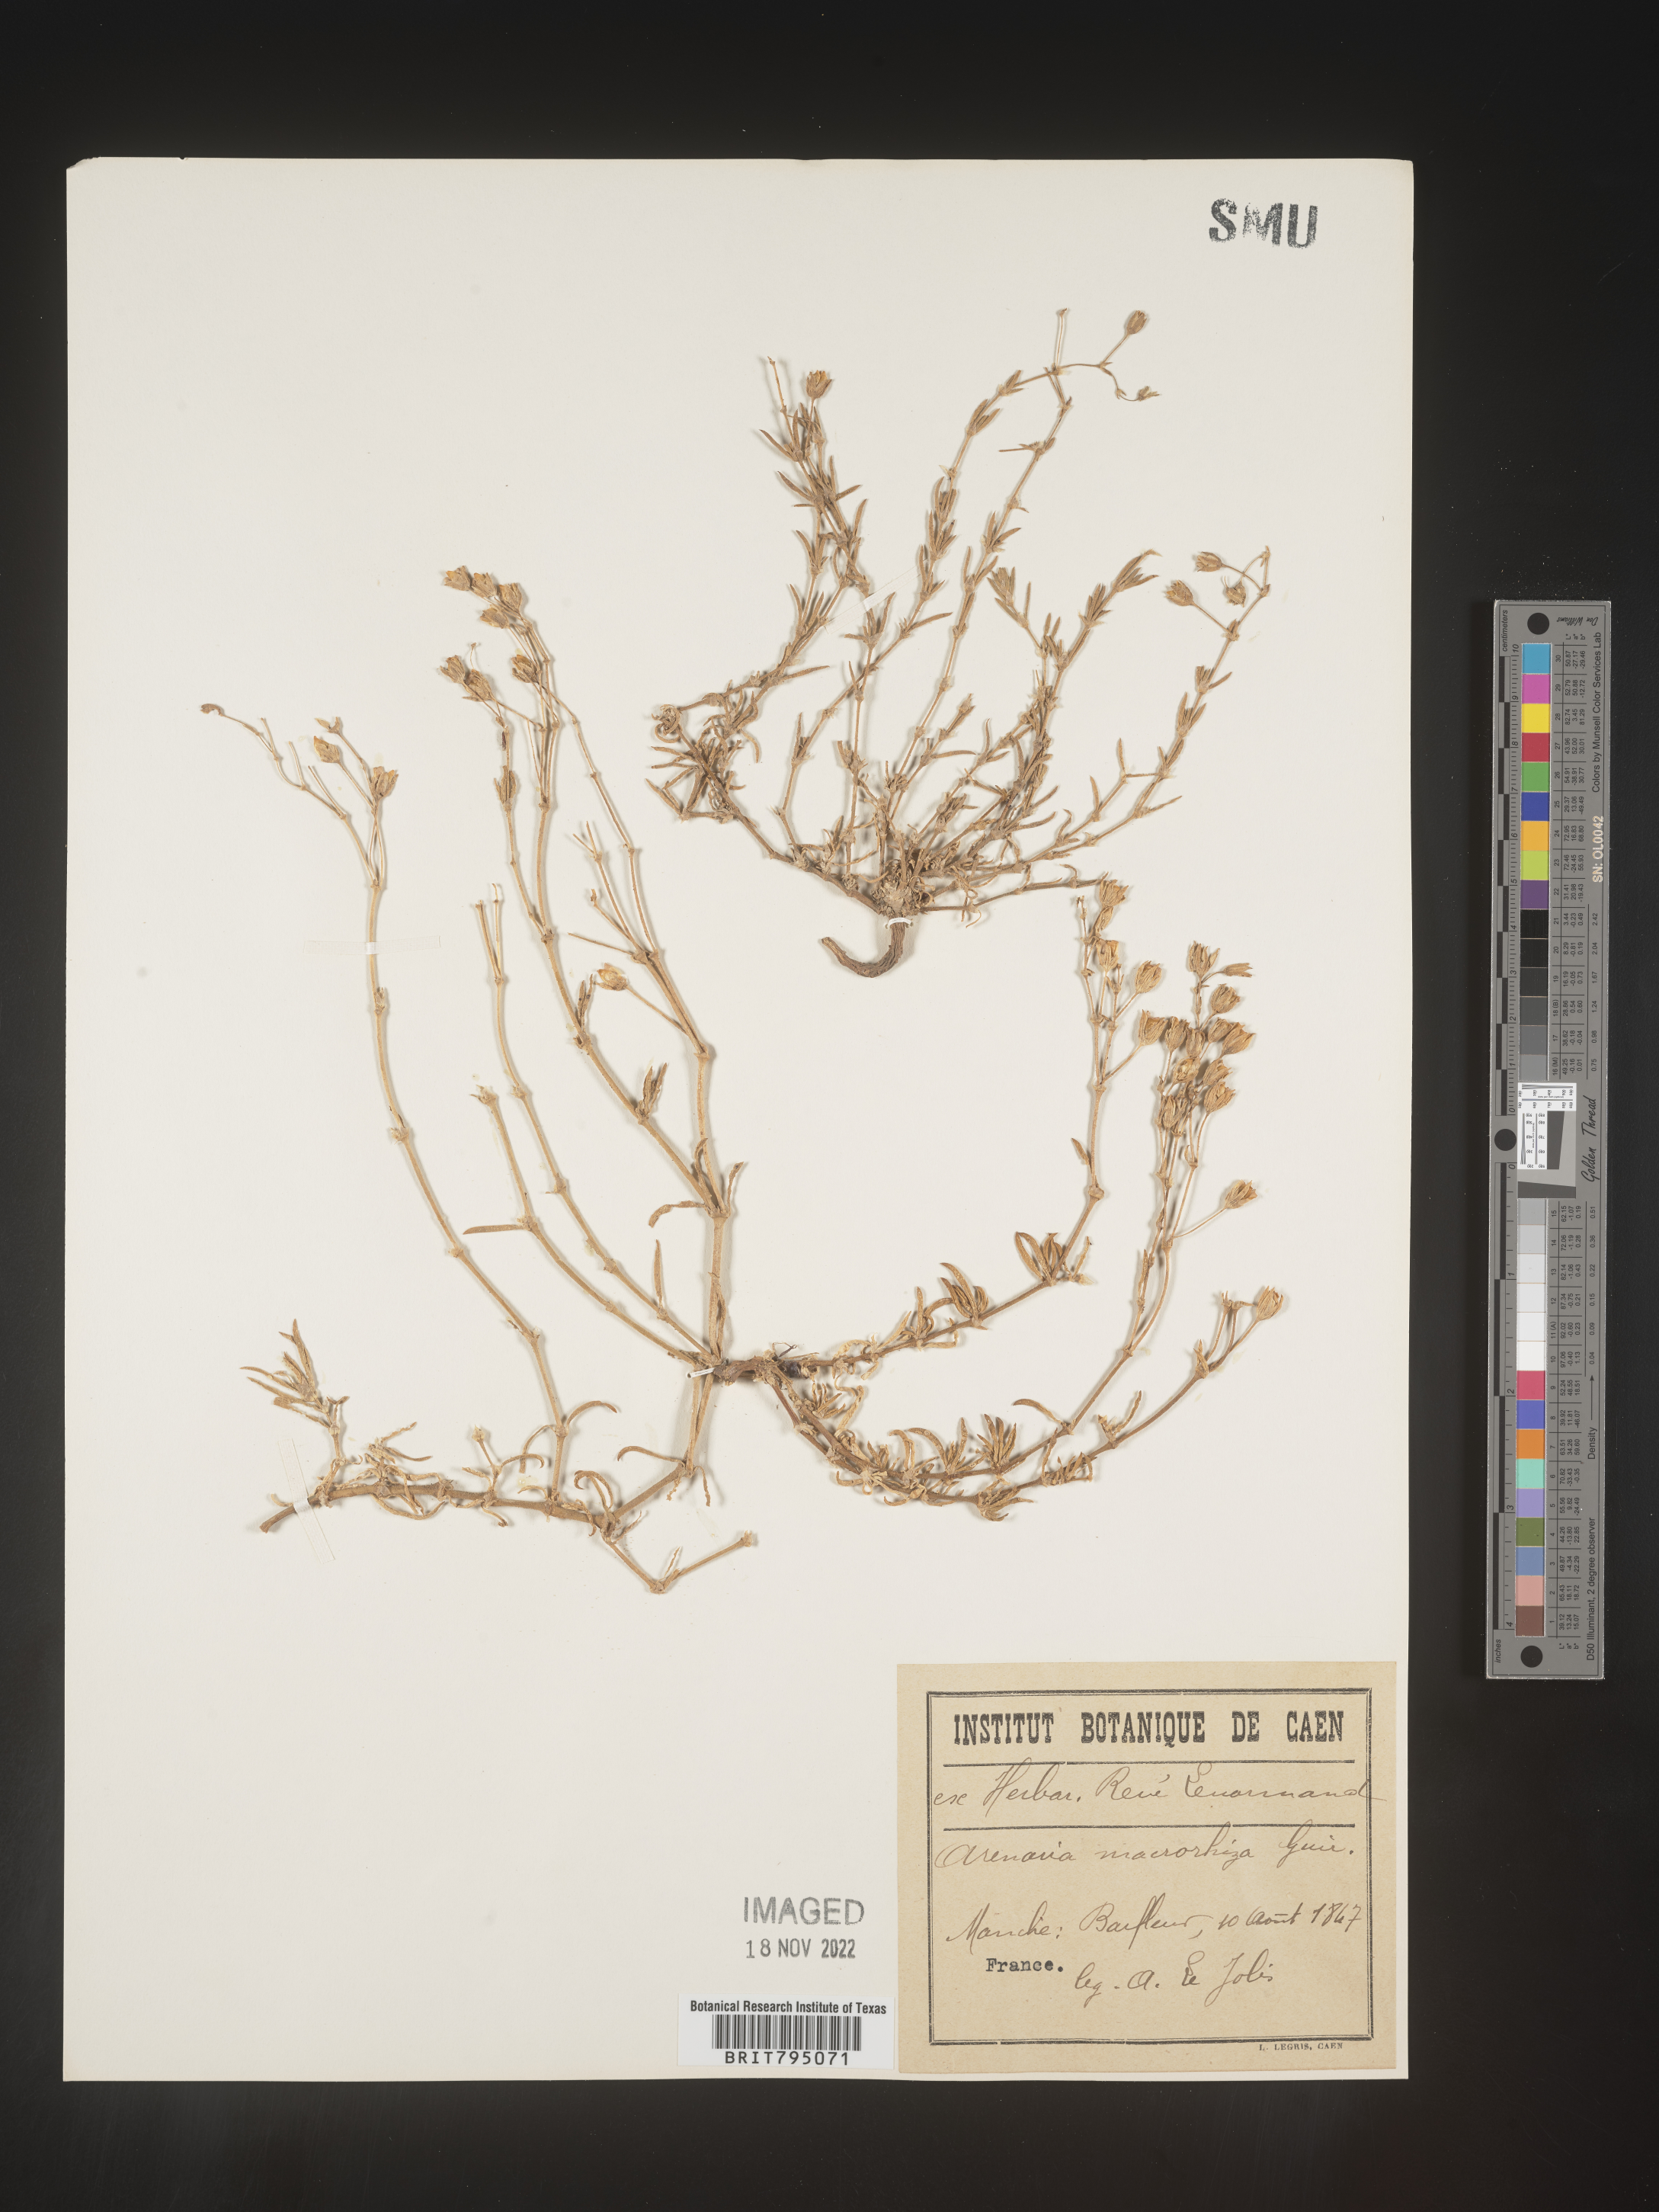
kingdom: Plantae
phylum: Tracheophyta
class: Magnoliopsida
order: Caryophyllales
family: Caryophyllaceae
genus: Spergularia
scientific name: Spergularia media
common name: Greater sea-spurrey
